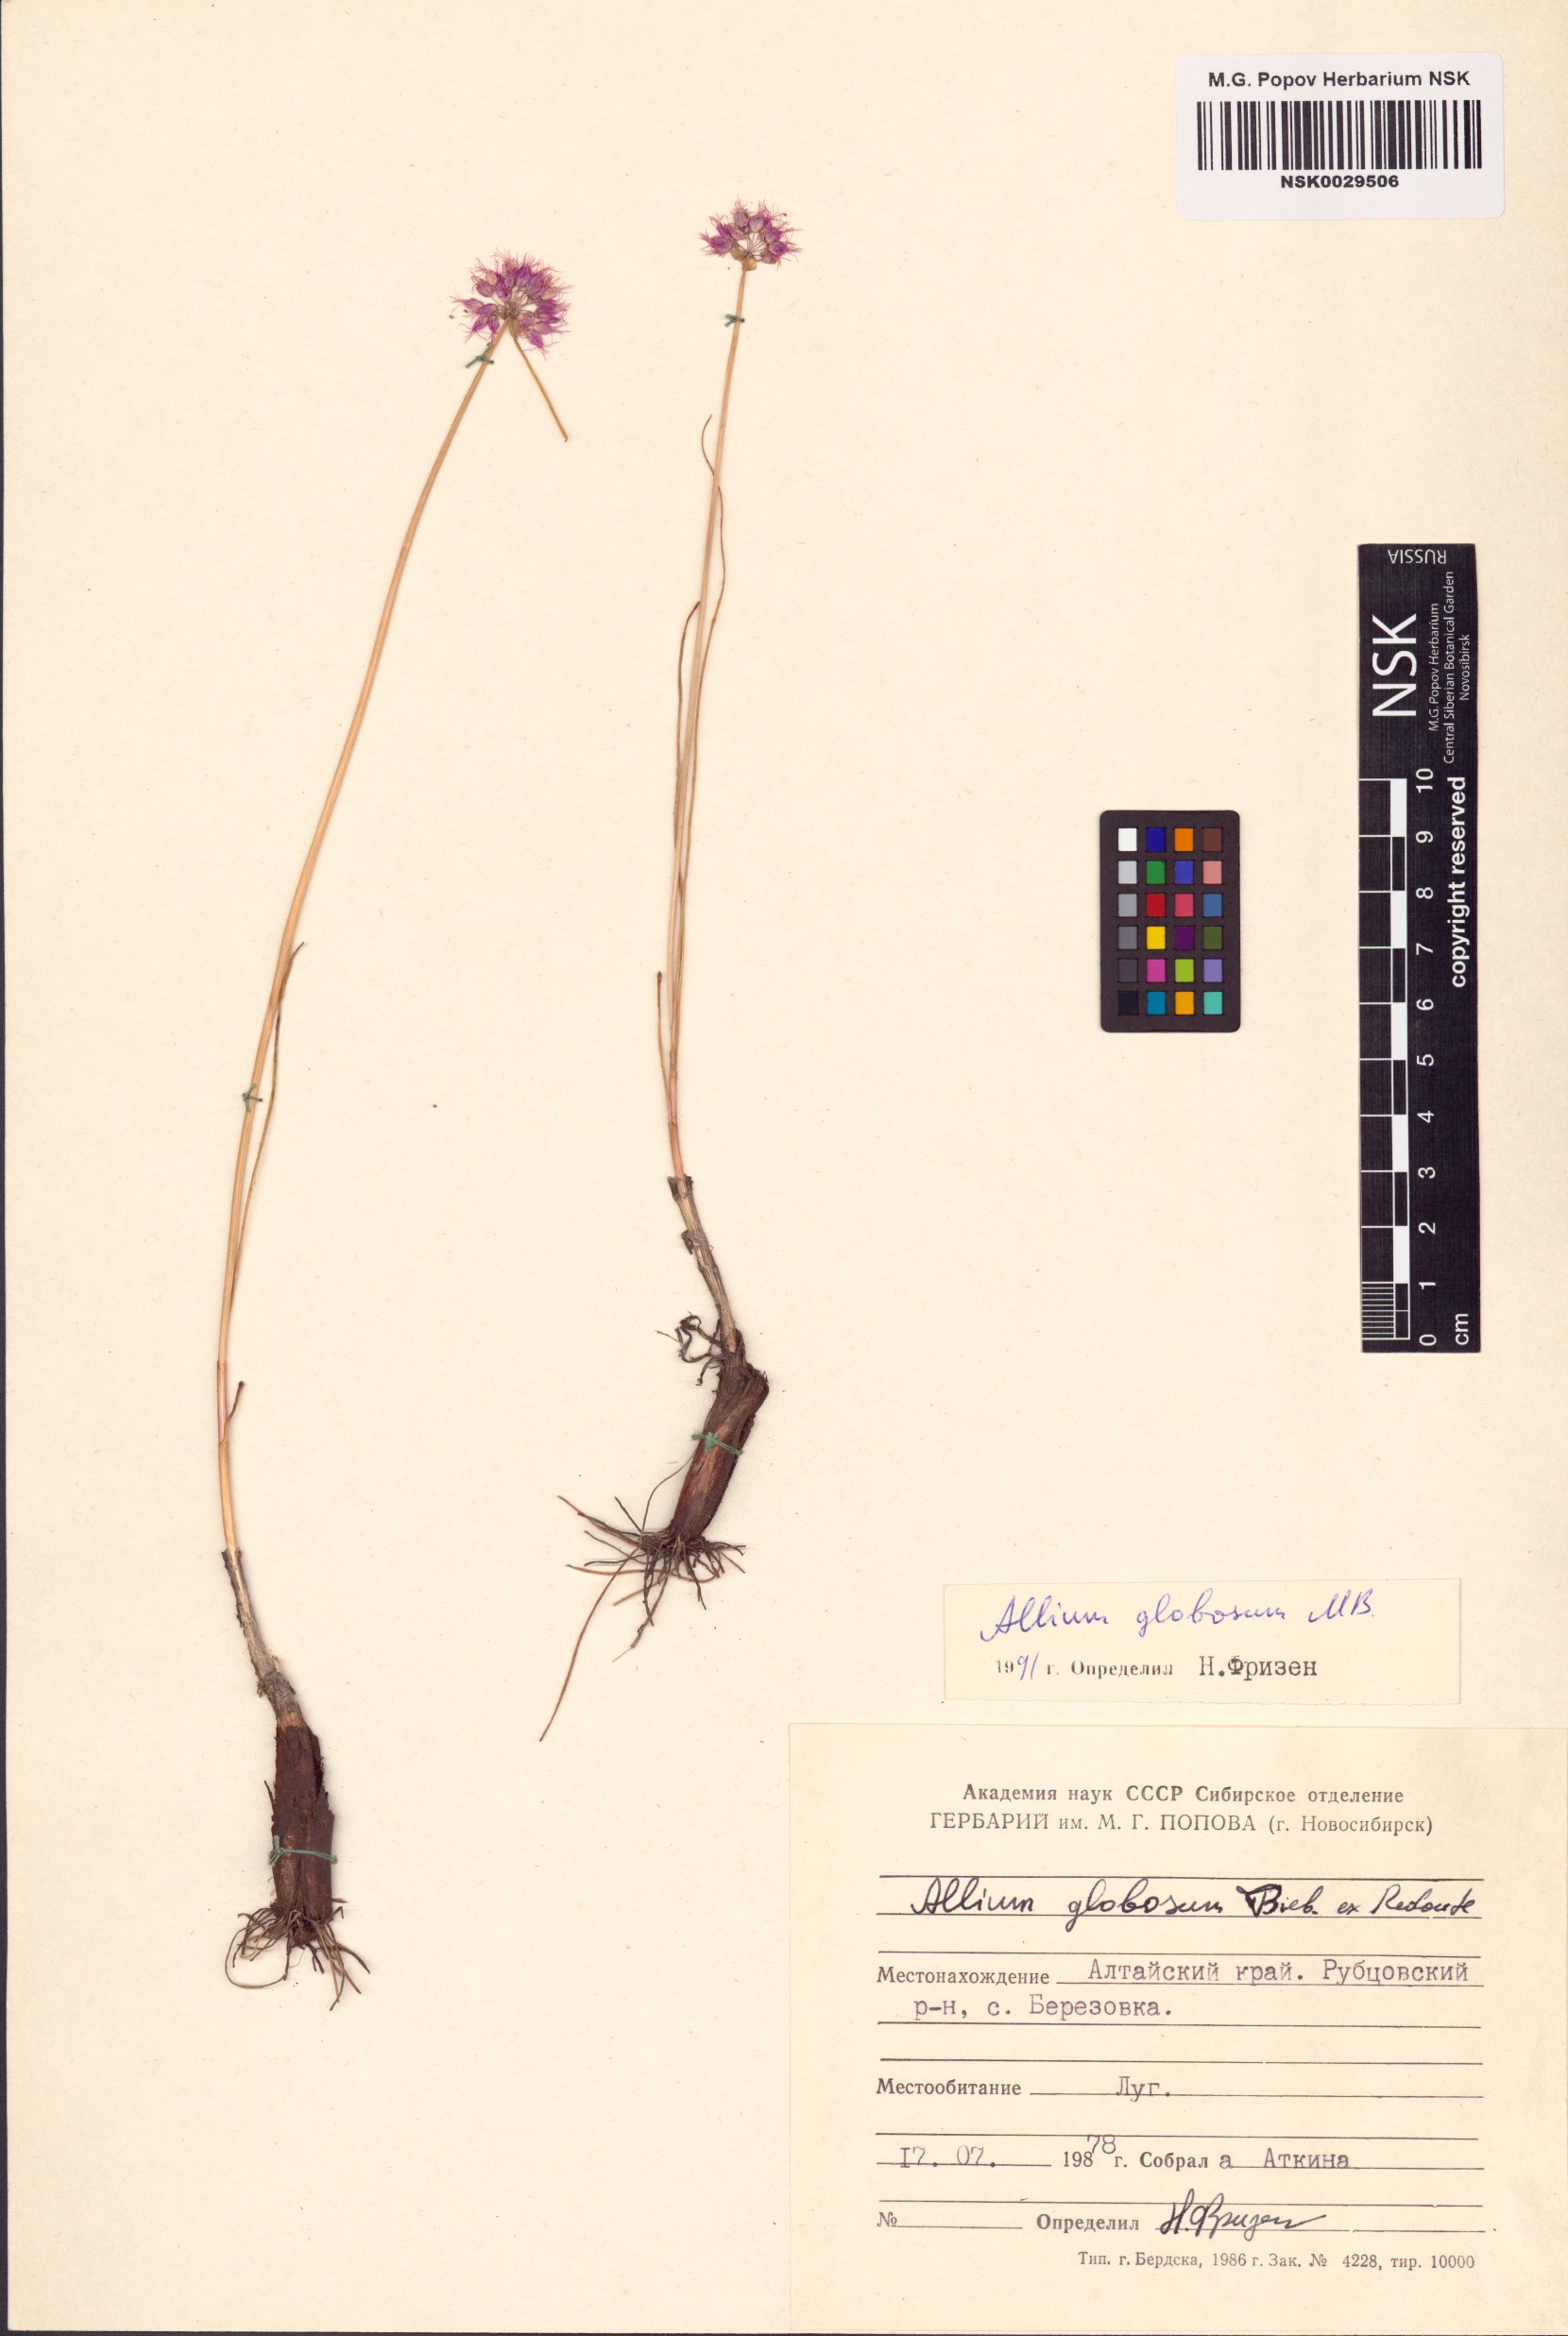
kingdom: Plantae
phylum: Tracheophyta
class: Liliopsida
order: Asparagales
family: Amaryllidaceae
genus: Allium
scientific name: Allium saxatile
